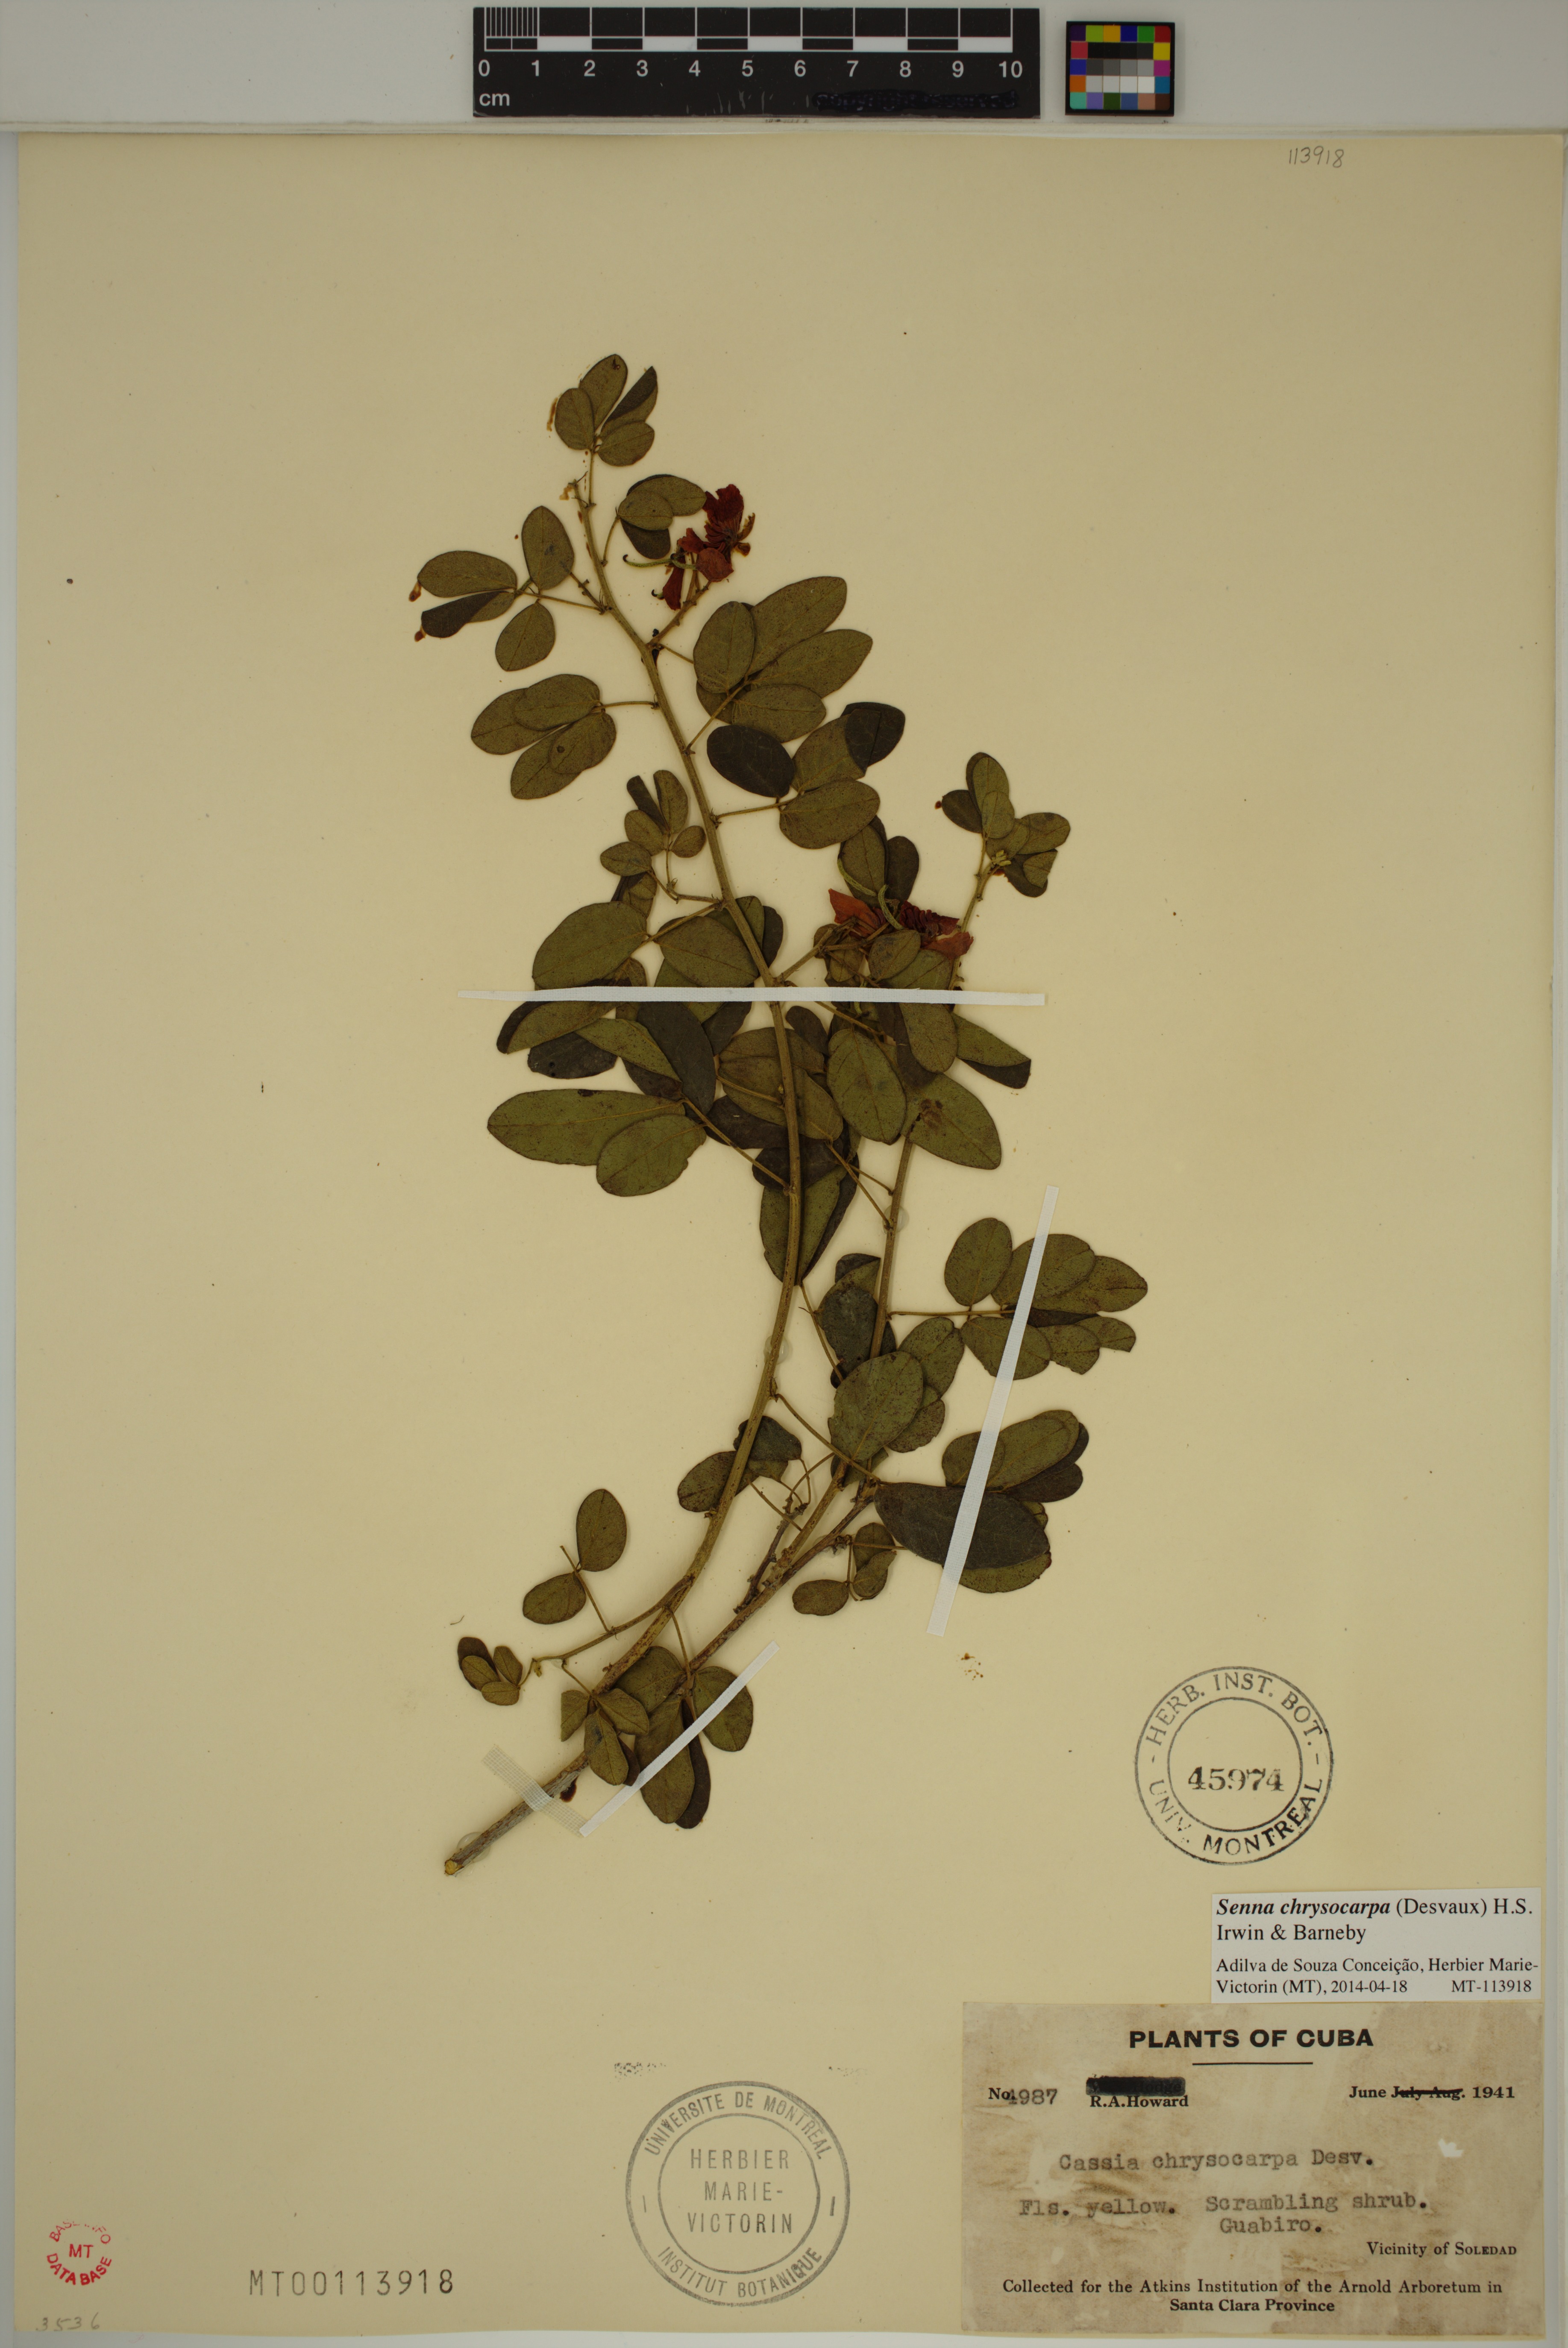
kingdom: Plantae
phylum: Tracheophyta
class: Magnoliopsida
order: Fabales
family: Fabaceae
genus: Senna
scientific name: Senna chrysocarpa
